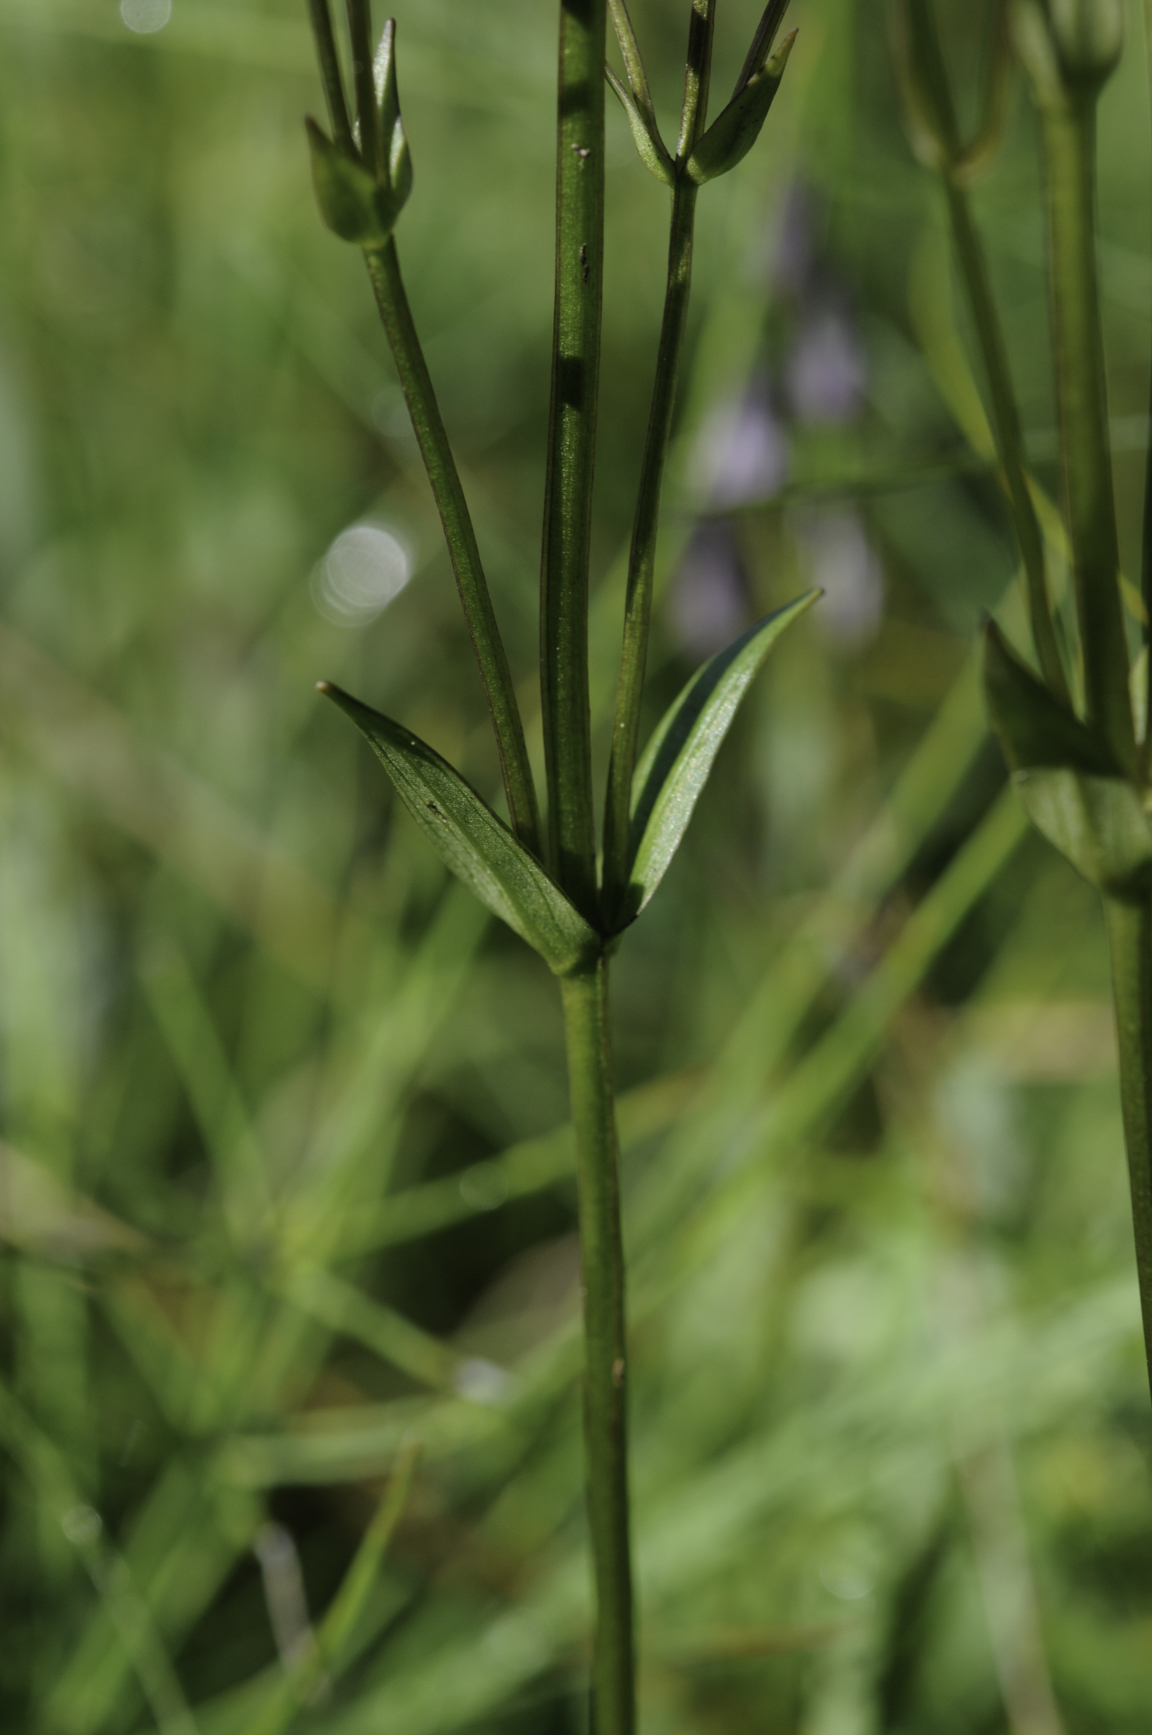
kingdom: Plantae
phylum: Tracheophyta
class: Magnoliopsida
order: Gentianales
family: Gentianaceae
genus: Swertia
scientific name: Swertia perennis
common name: Alpine bog swertia
